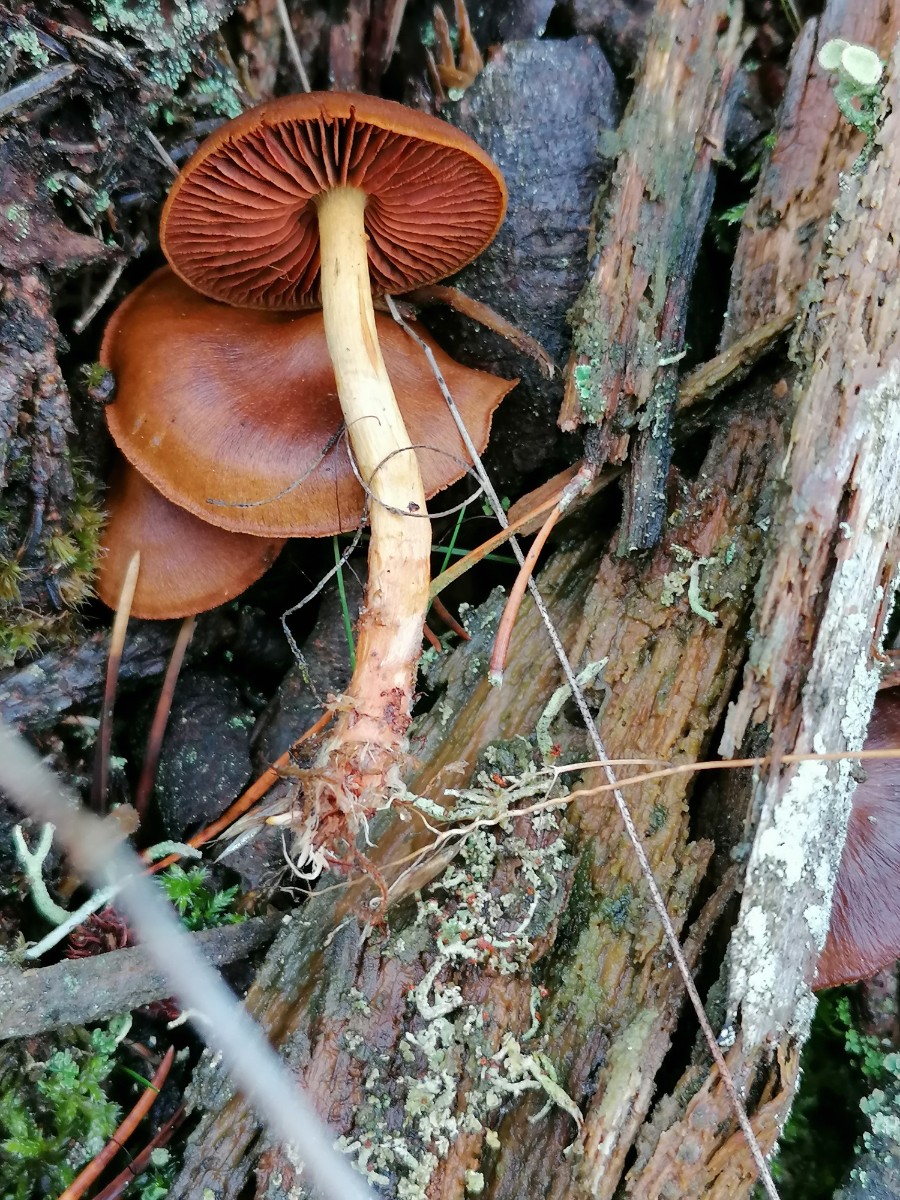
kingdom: Fungi
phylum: Basidiomycota
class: Agaricomycetes
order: Agaricales
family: Cortinariaceae
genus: Cortinarius
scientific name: Cortinarius
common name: cinnoberbladet slørhat
